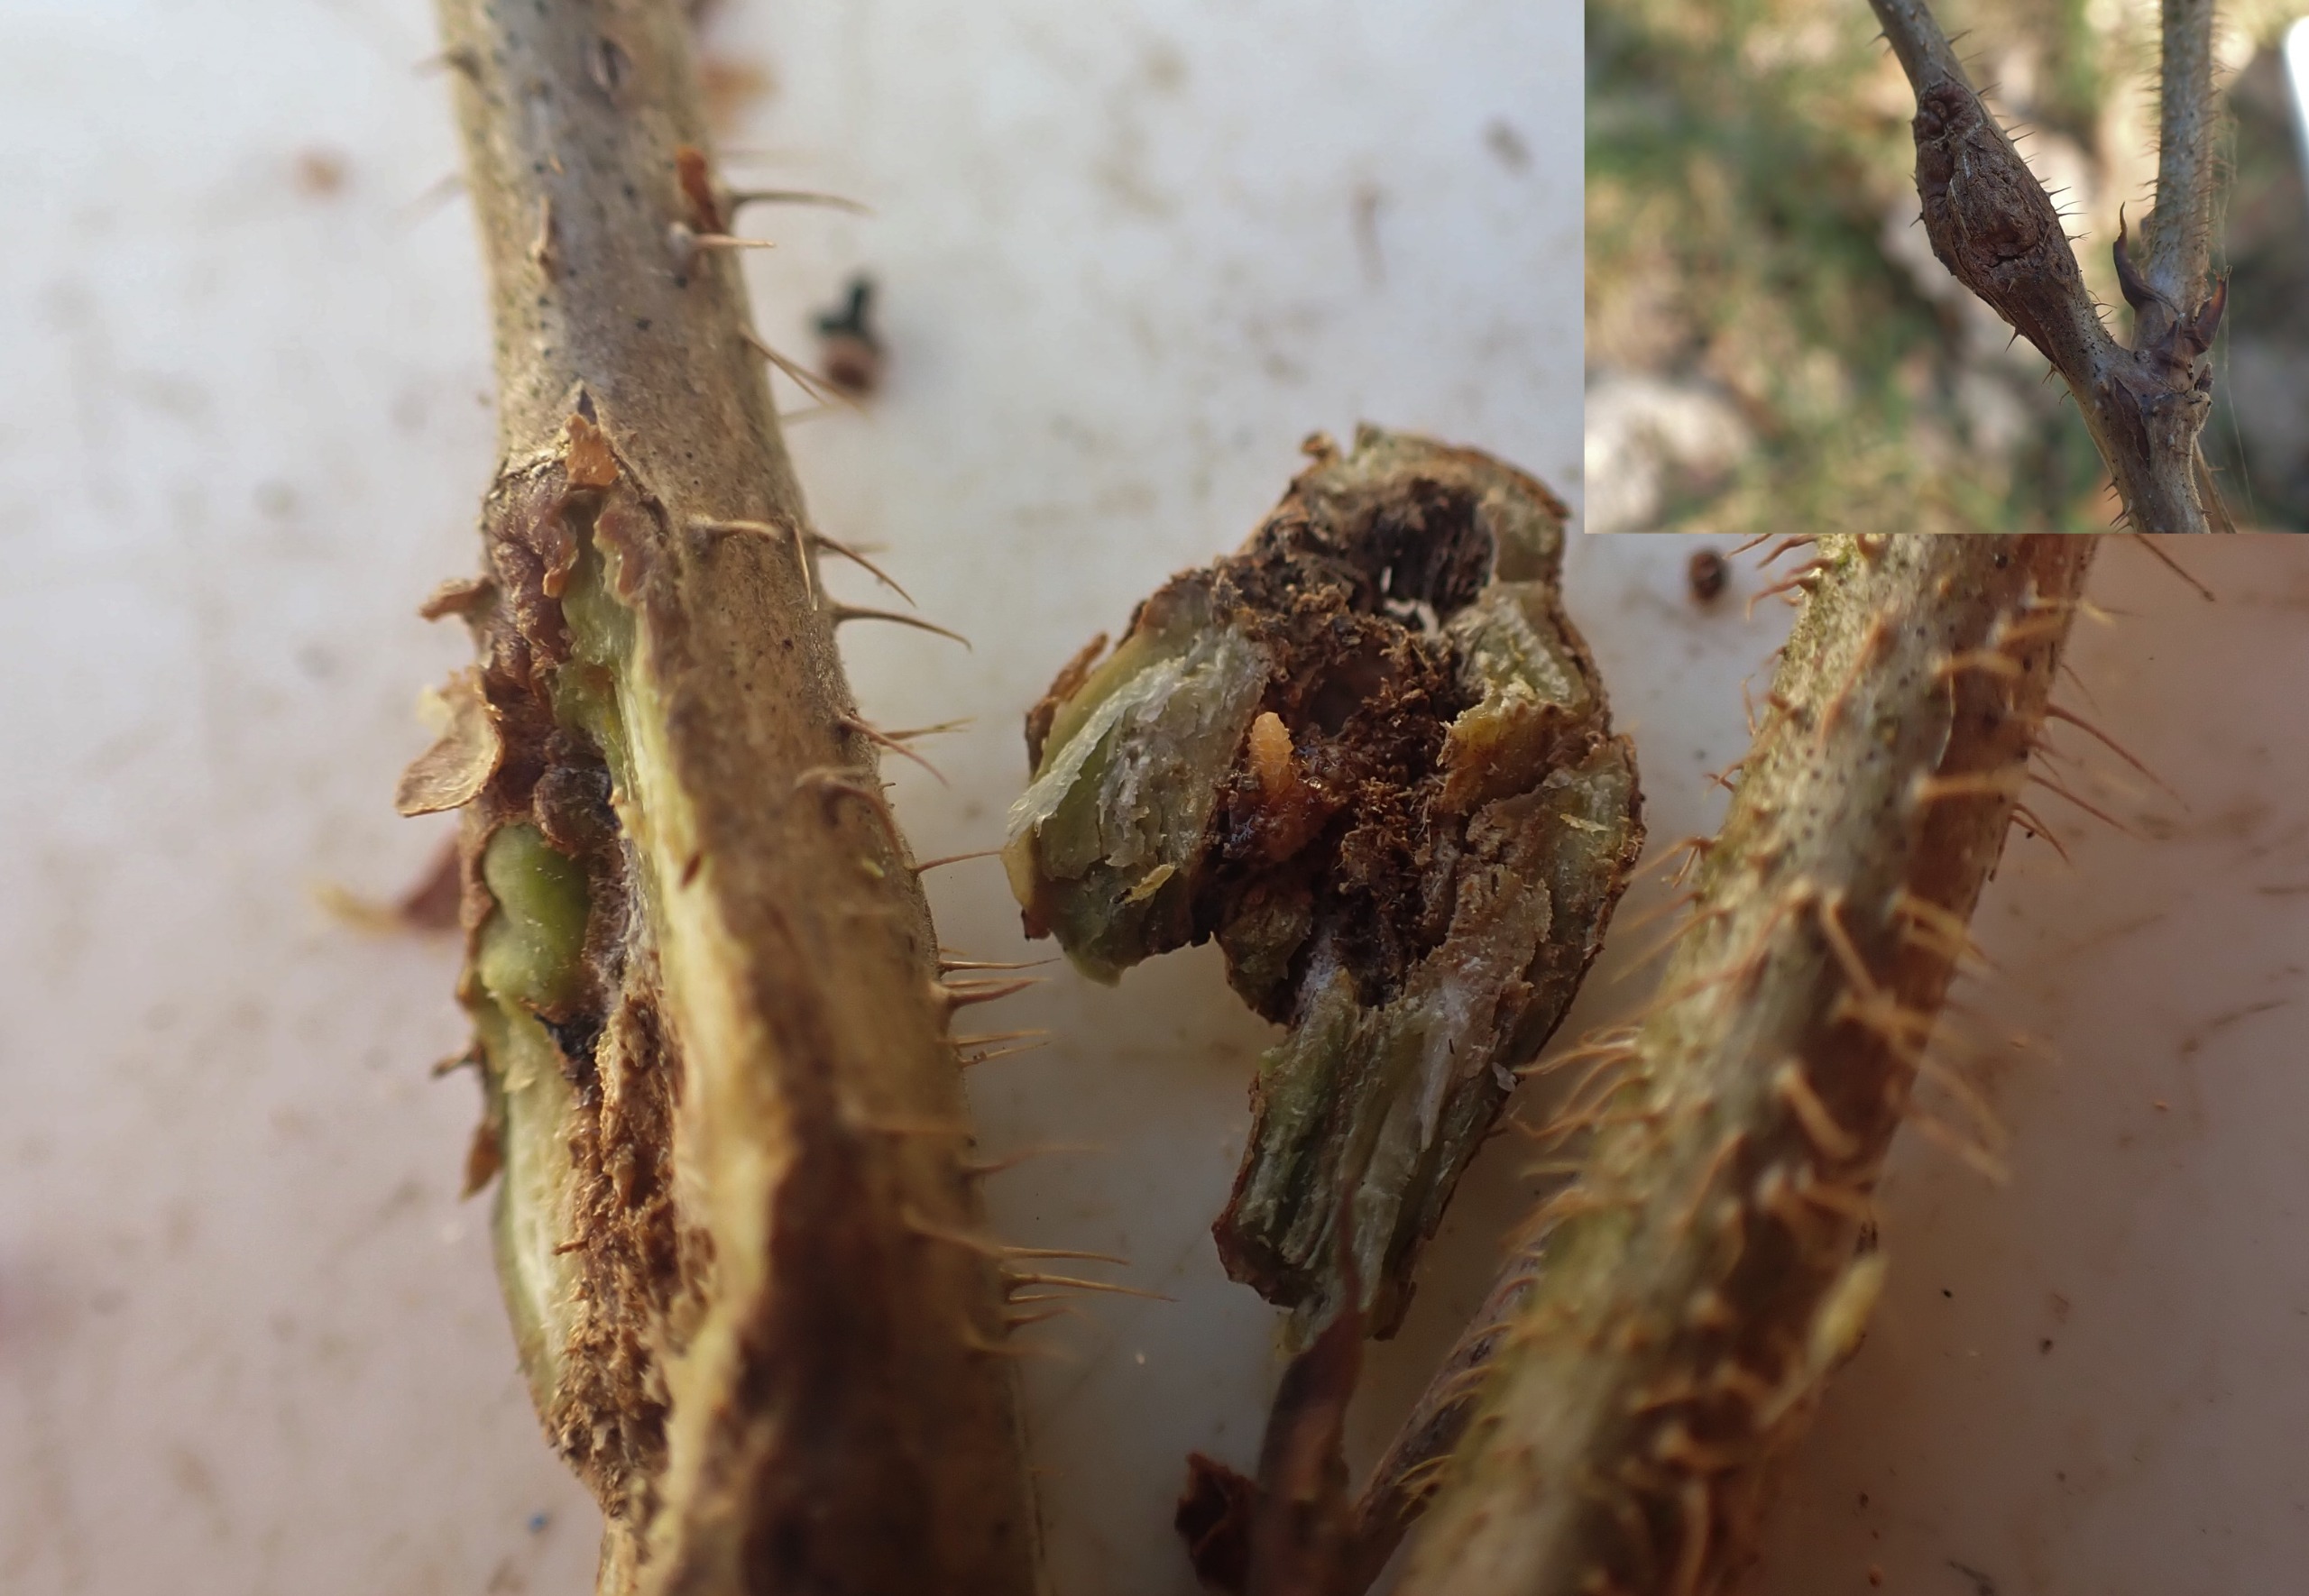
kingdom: Animalia
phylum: Arthropoda
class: Insecta
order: Diptera
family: Cecidomyiidae
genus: Lasioptera
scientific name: Lasioptera rubi
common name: Hindbærstængelgalmyg
